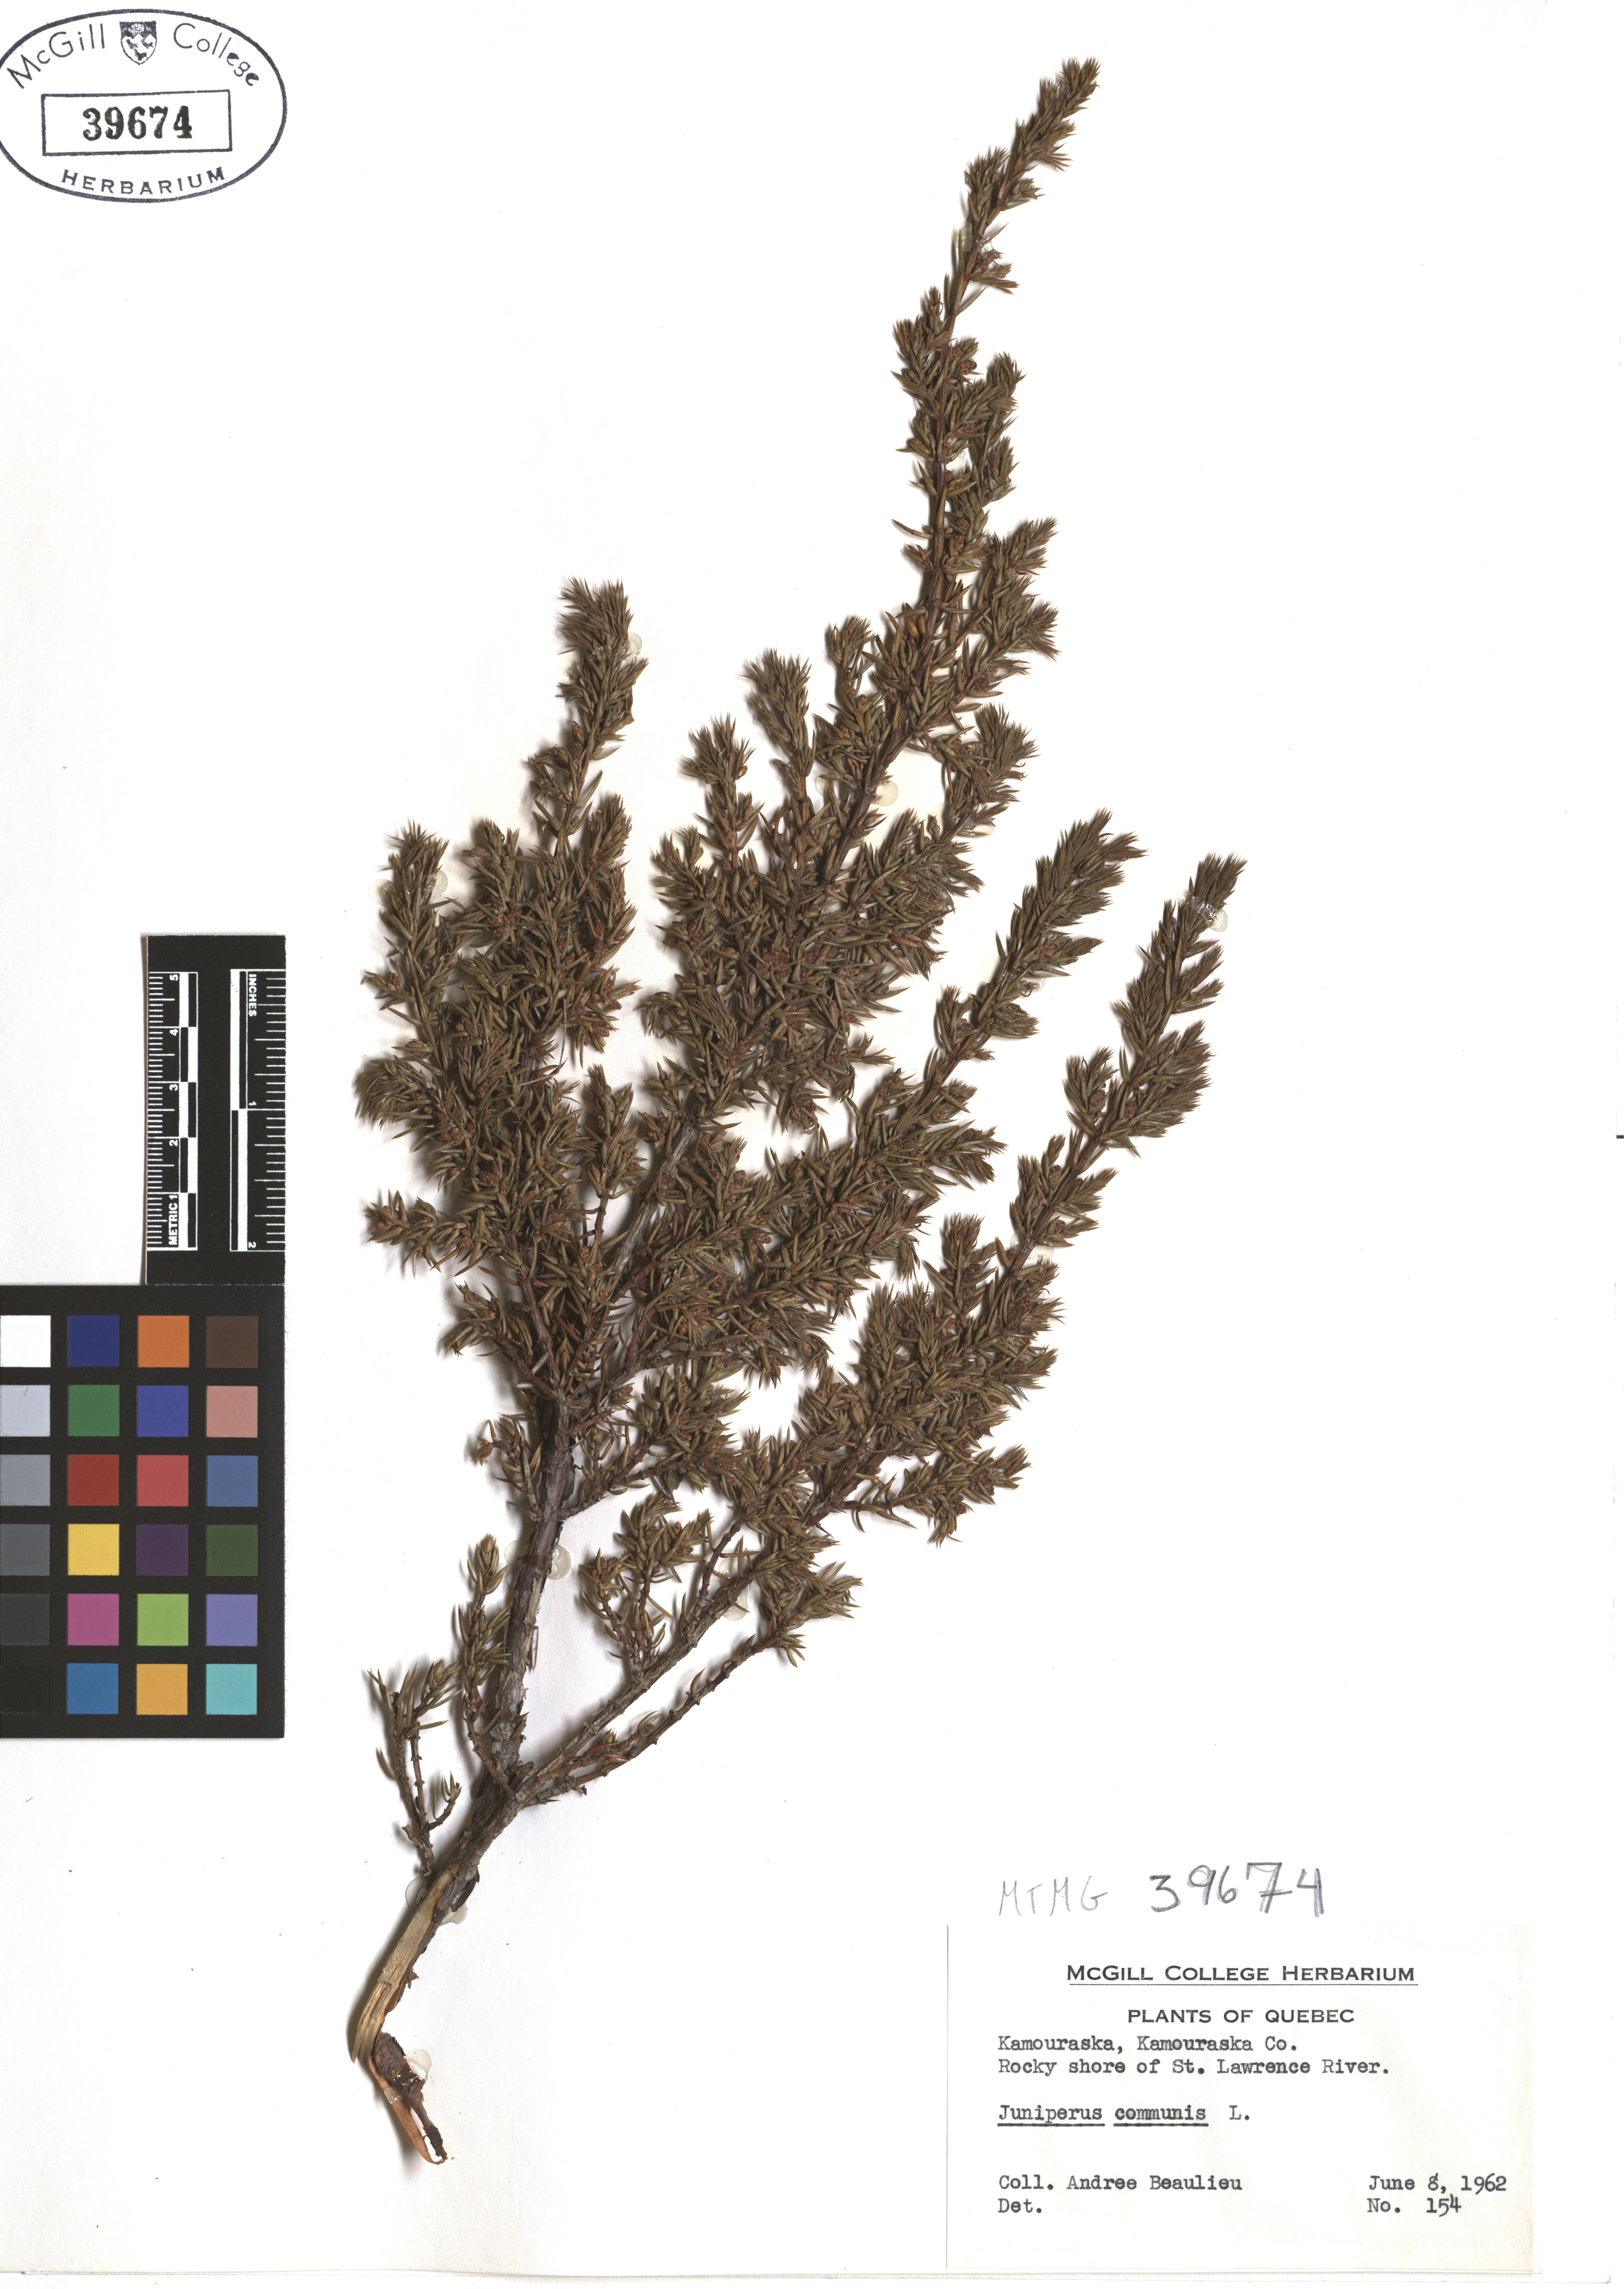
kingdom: Plantae
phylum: Tracheophyta
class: Pinopsida
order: Pinales
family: Cupressaceae
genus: Juniperus
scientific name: Juniperus communis
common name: Common juniper
